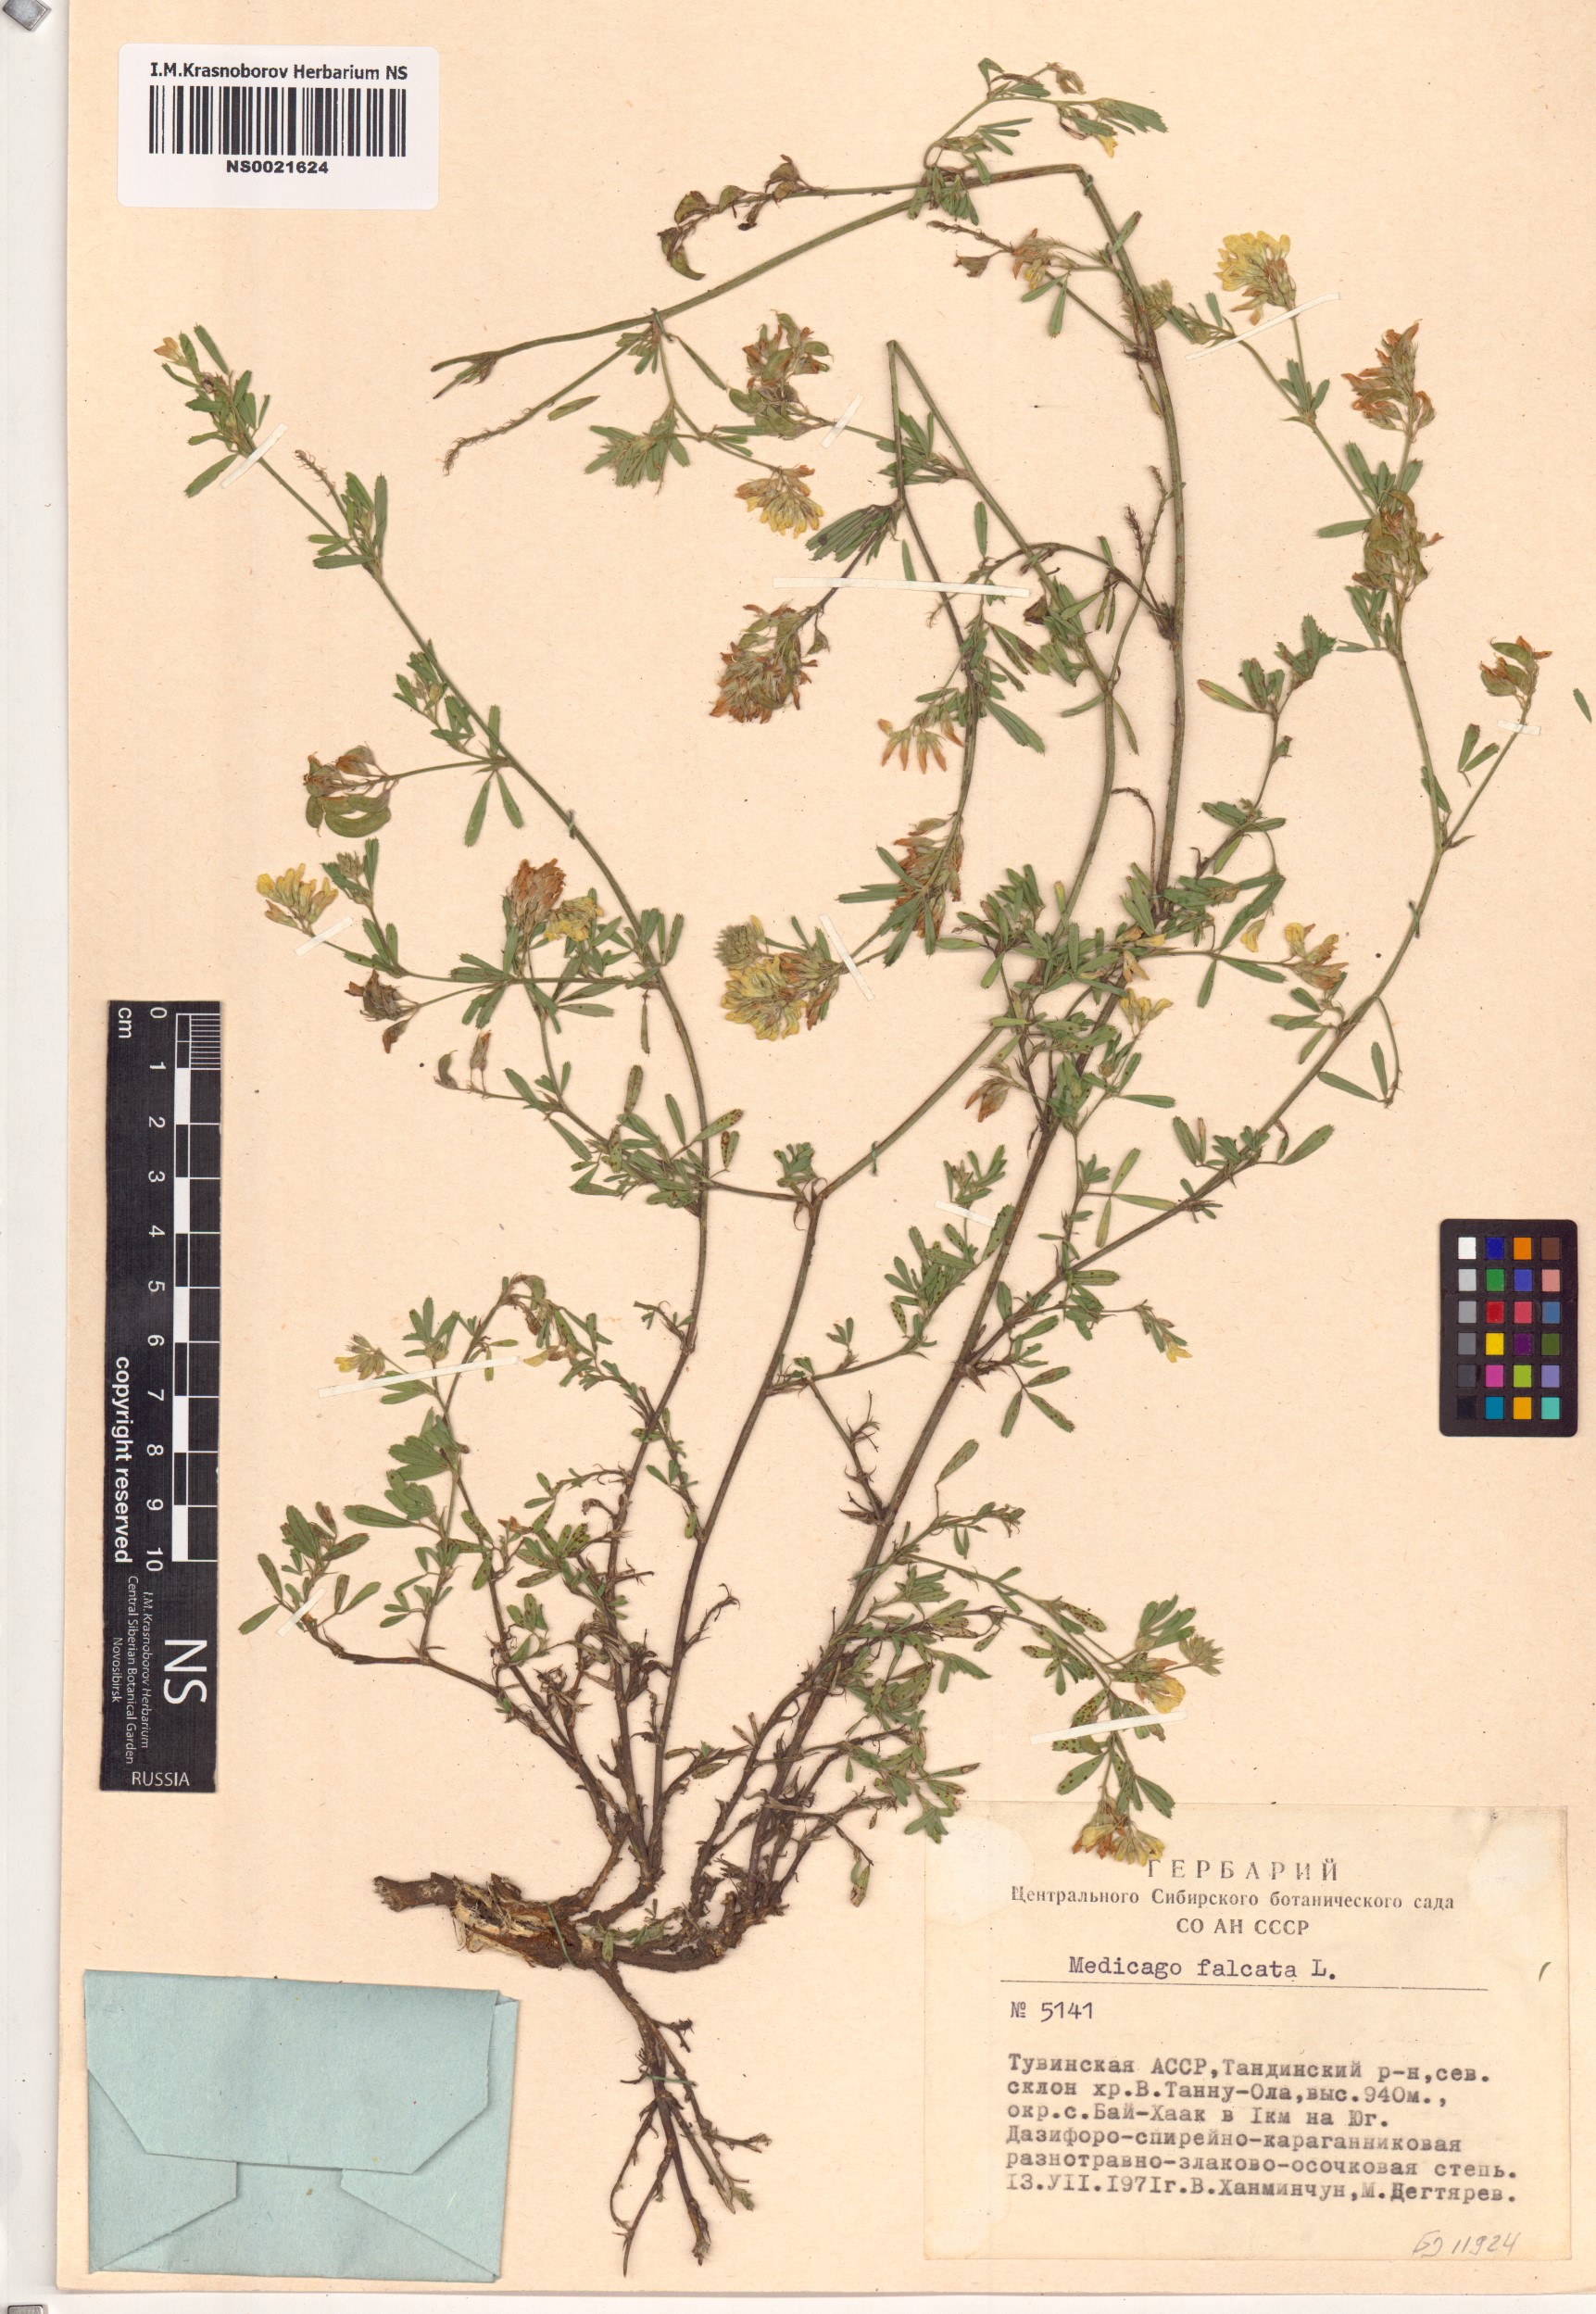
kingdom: Plantae
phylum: Tracheophyta
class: Magnoliopsida
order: Fabales
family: Fabaceae
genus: Medicago
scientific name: Medicago falcata
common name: Sickle medick
